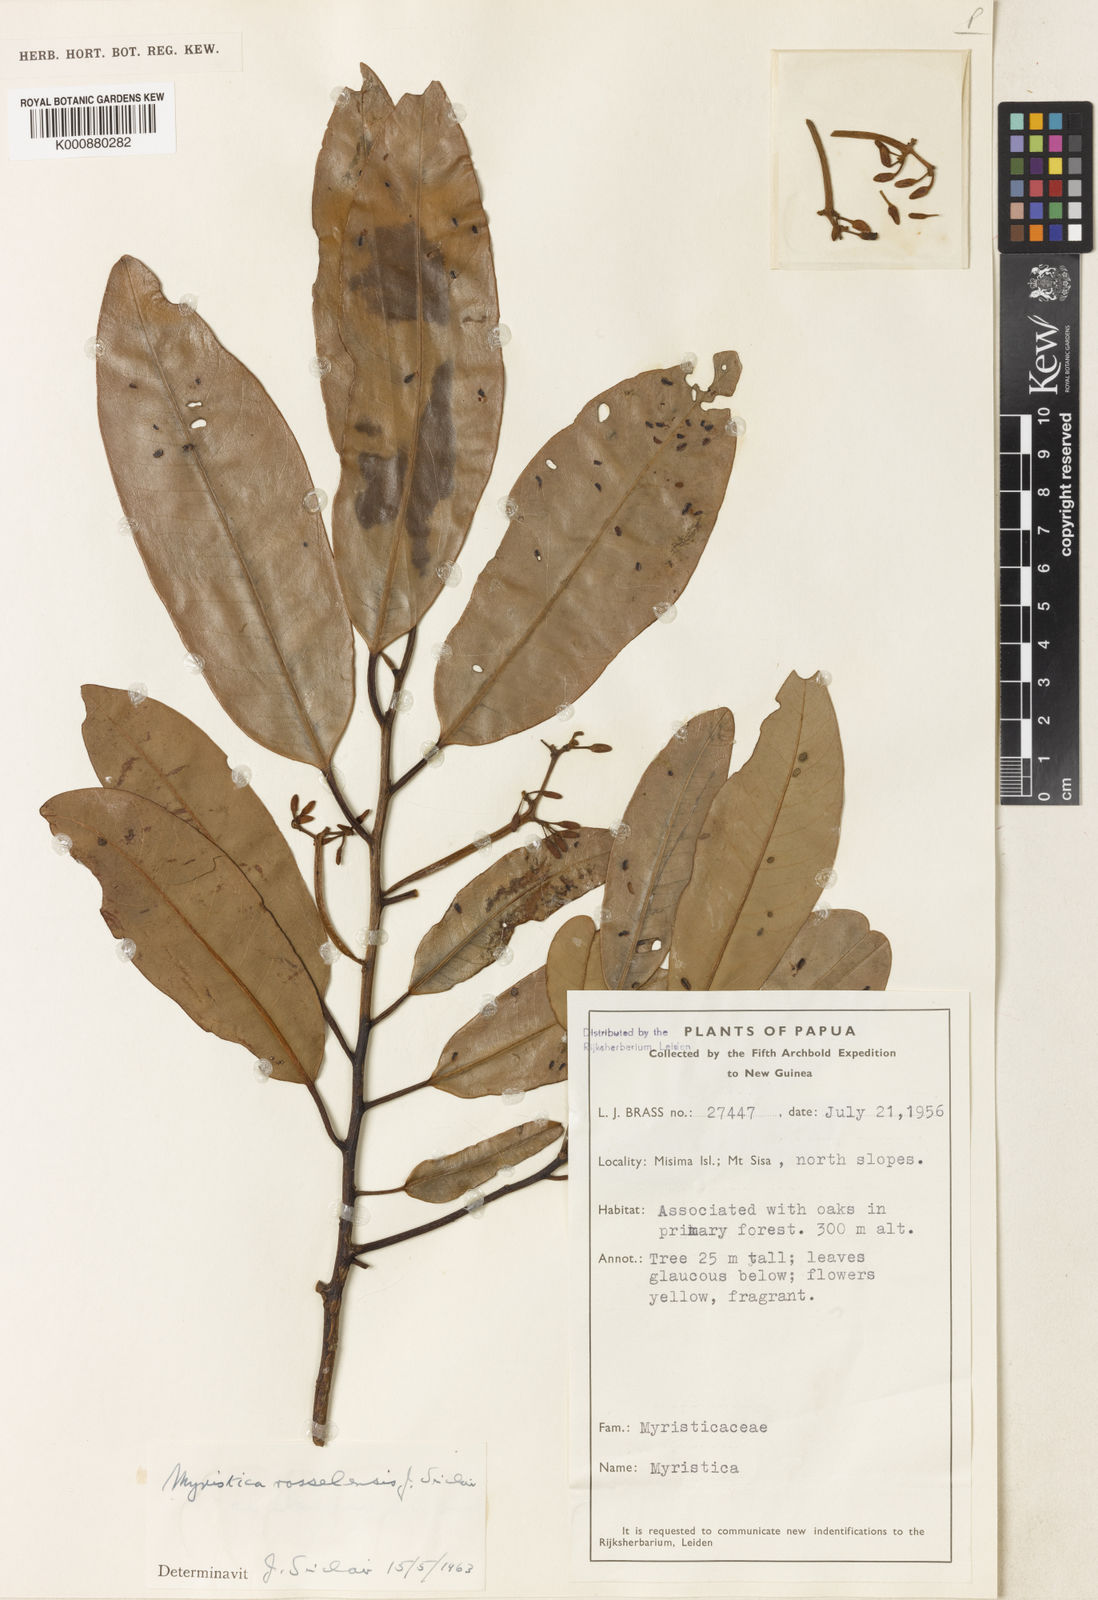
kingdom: Plantae
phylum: Tracheophyta
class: Magnoliopsida
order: Magnoliales
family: Myristicaceae
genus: Myristica
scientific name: Myristica rosselensis
